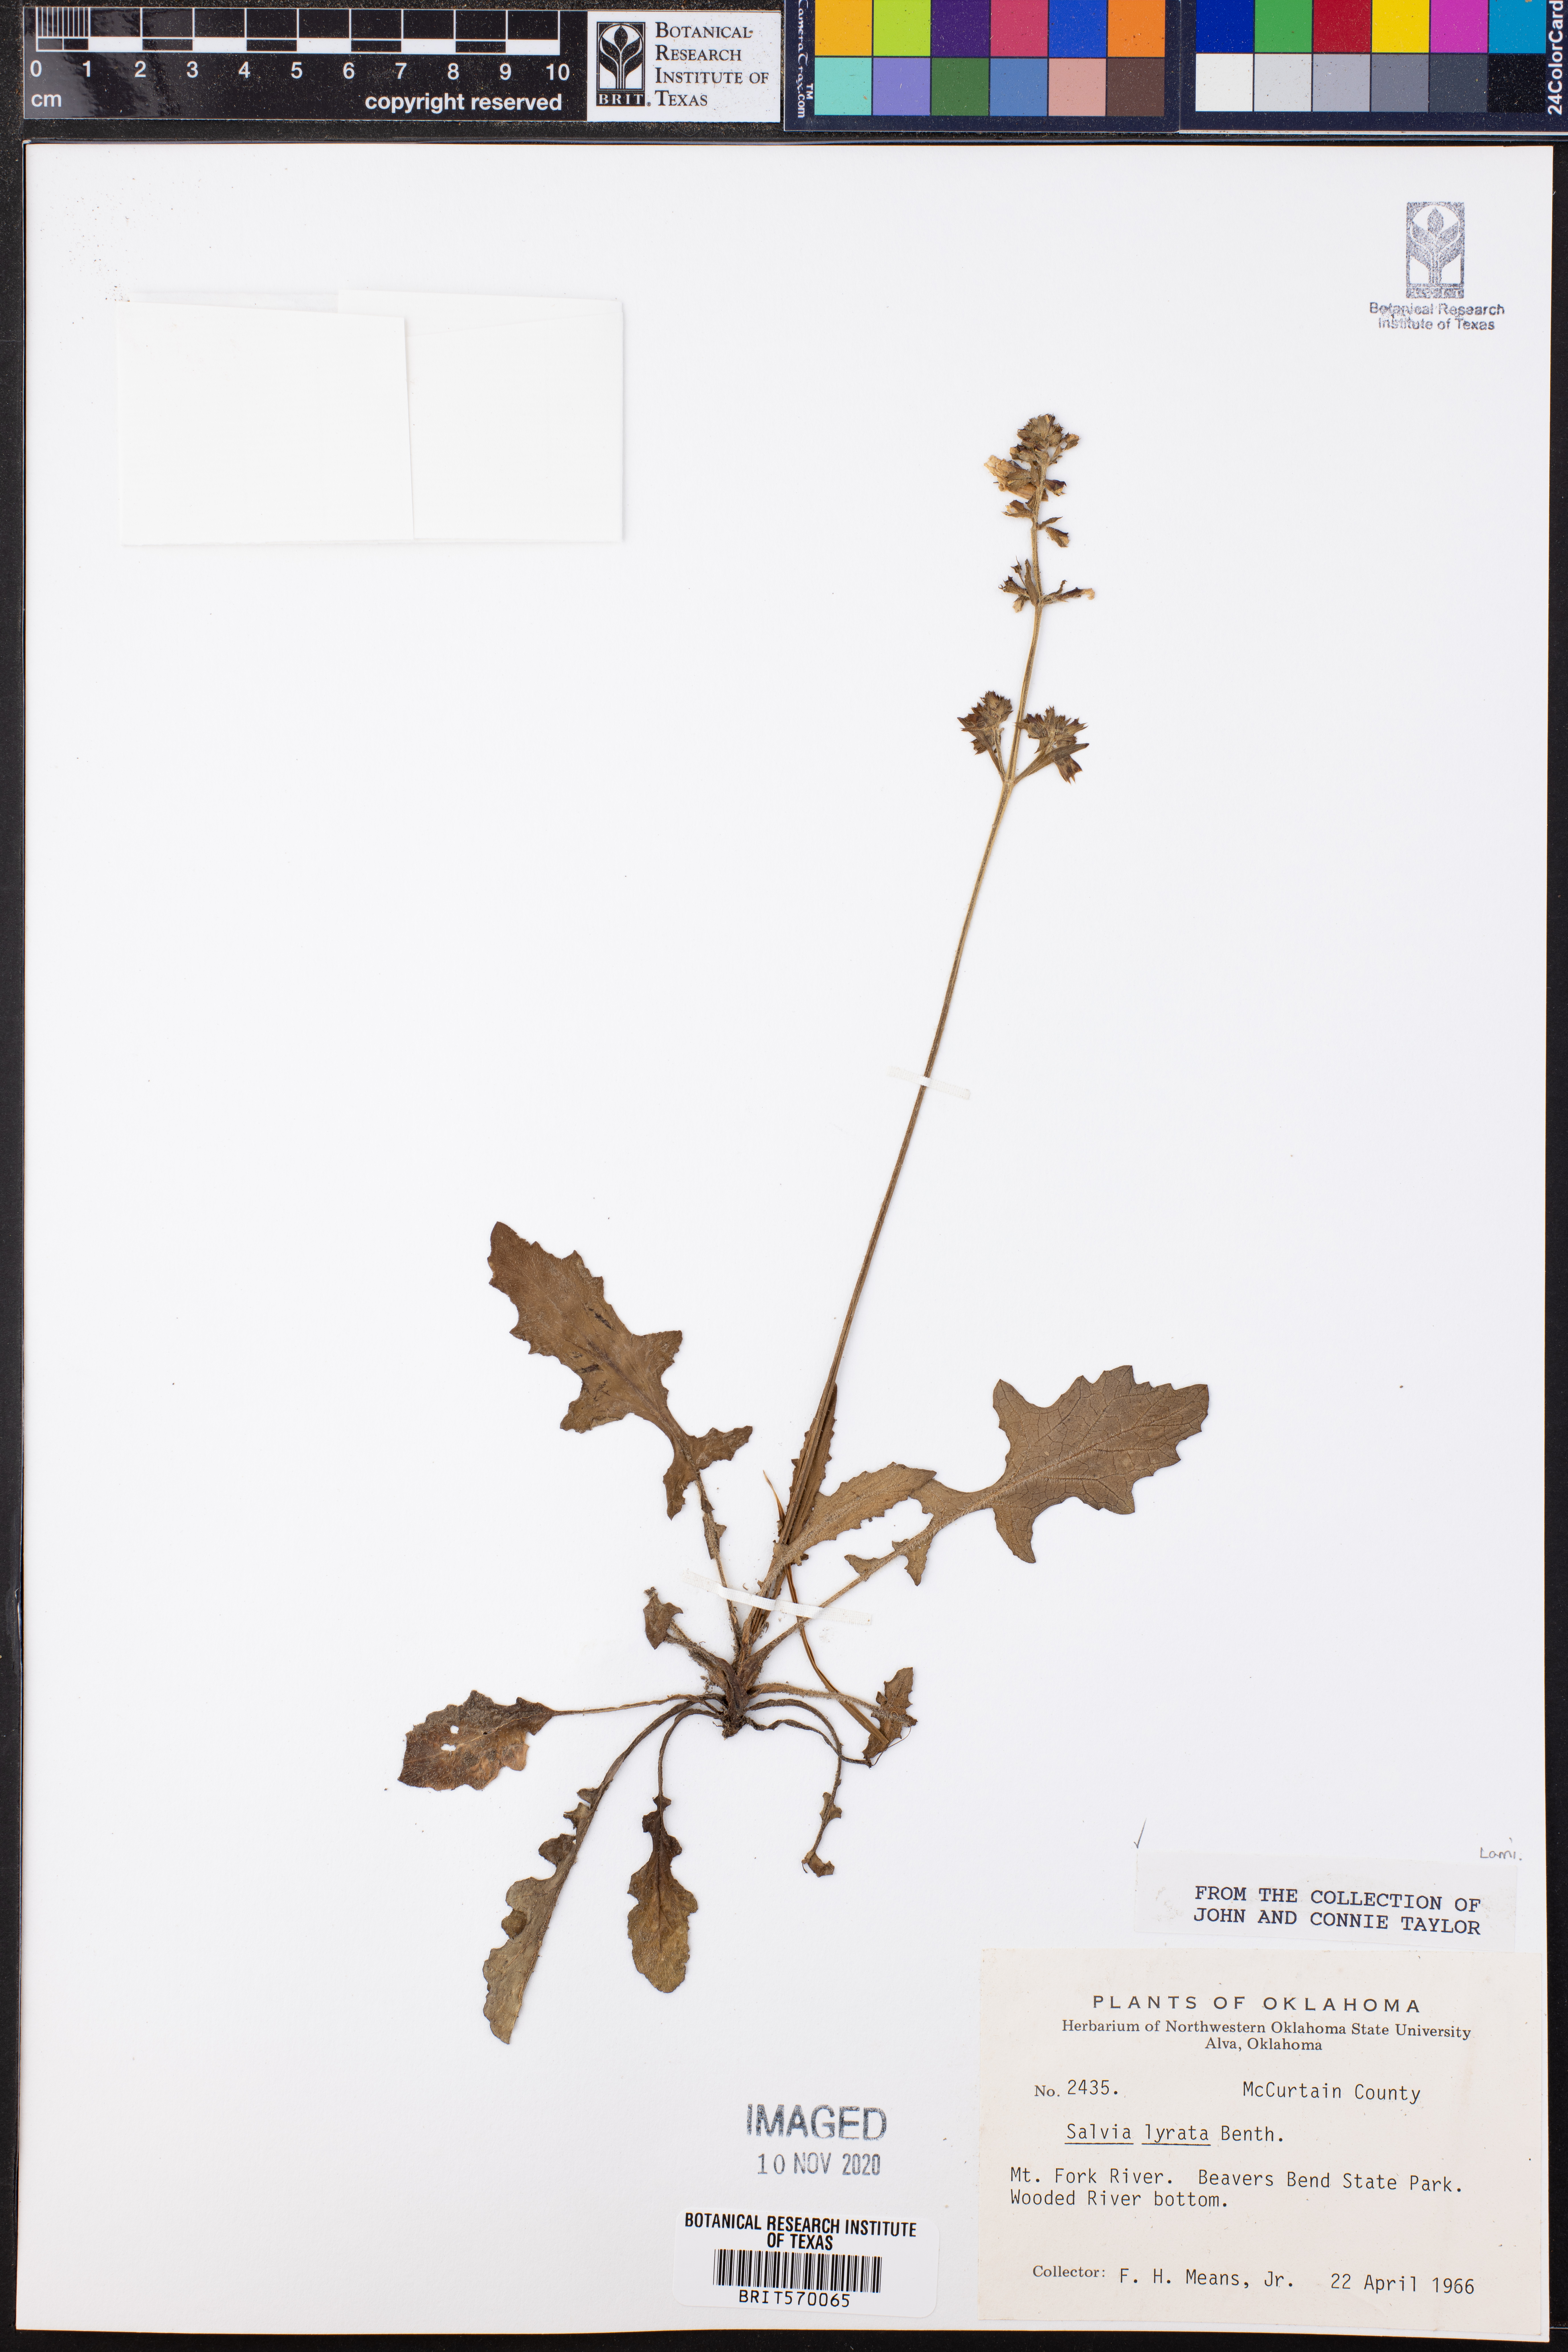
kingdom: Plantae
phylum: Tracheophyta
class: Magnoliopsida
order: Lamiales
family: Lamiaceae
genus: Salvia
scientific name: Salvia lyrata
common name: Cancerweed
